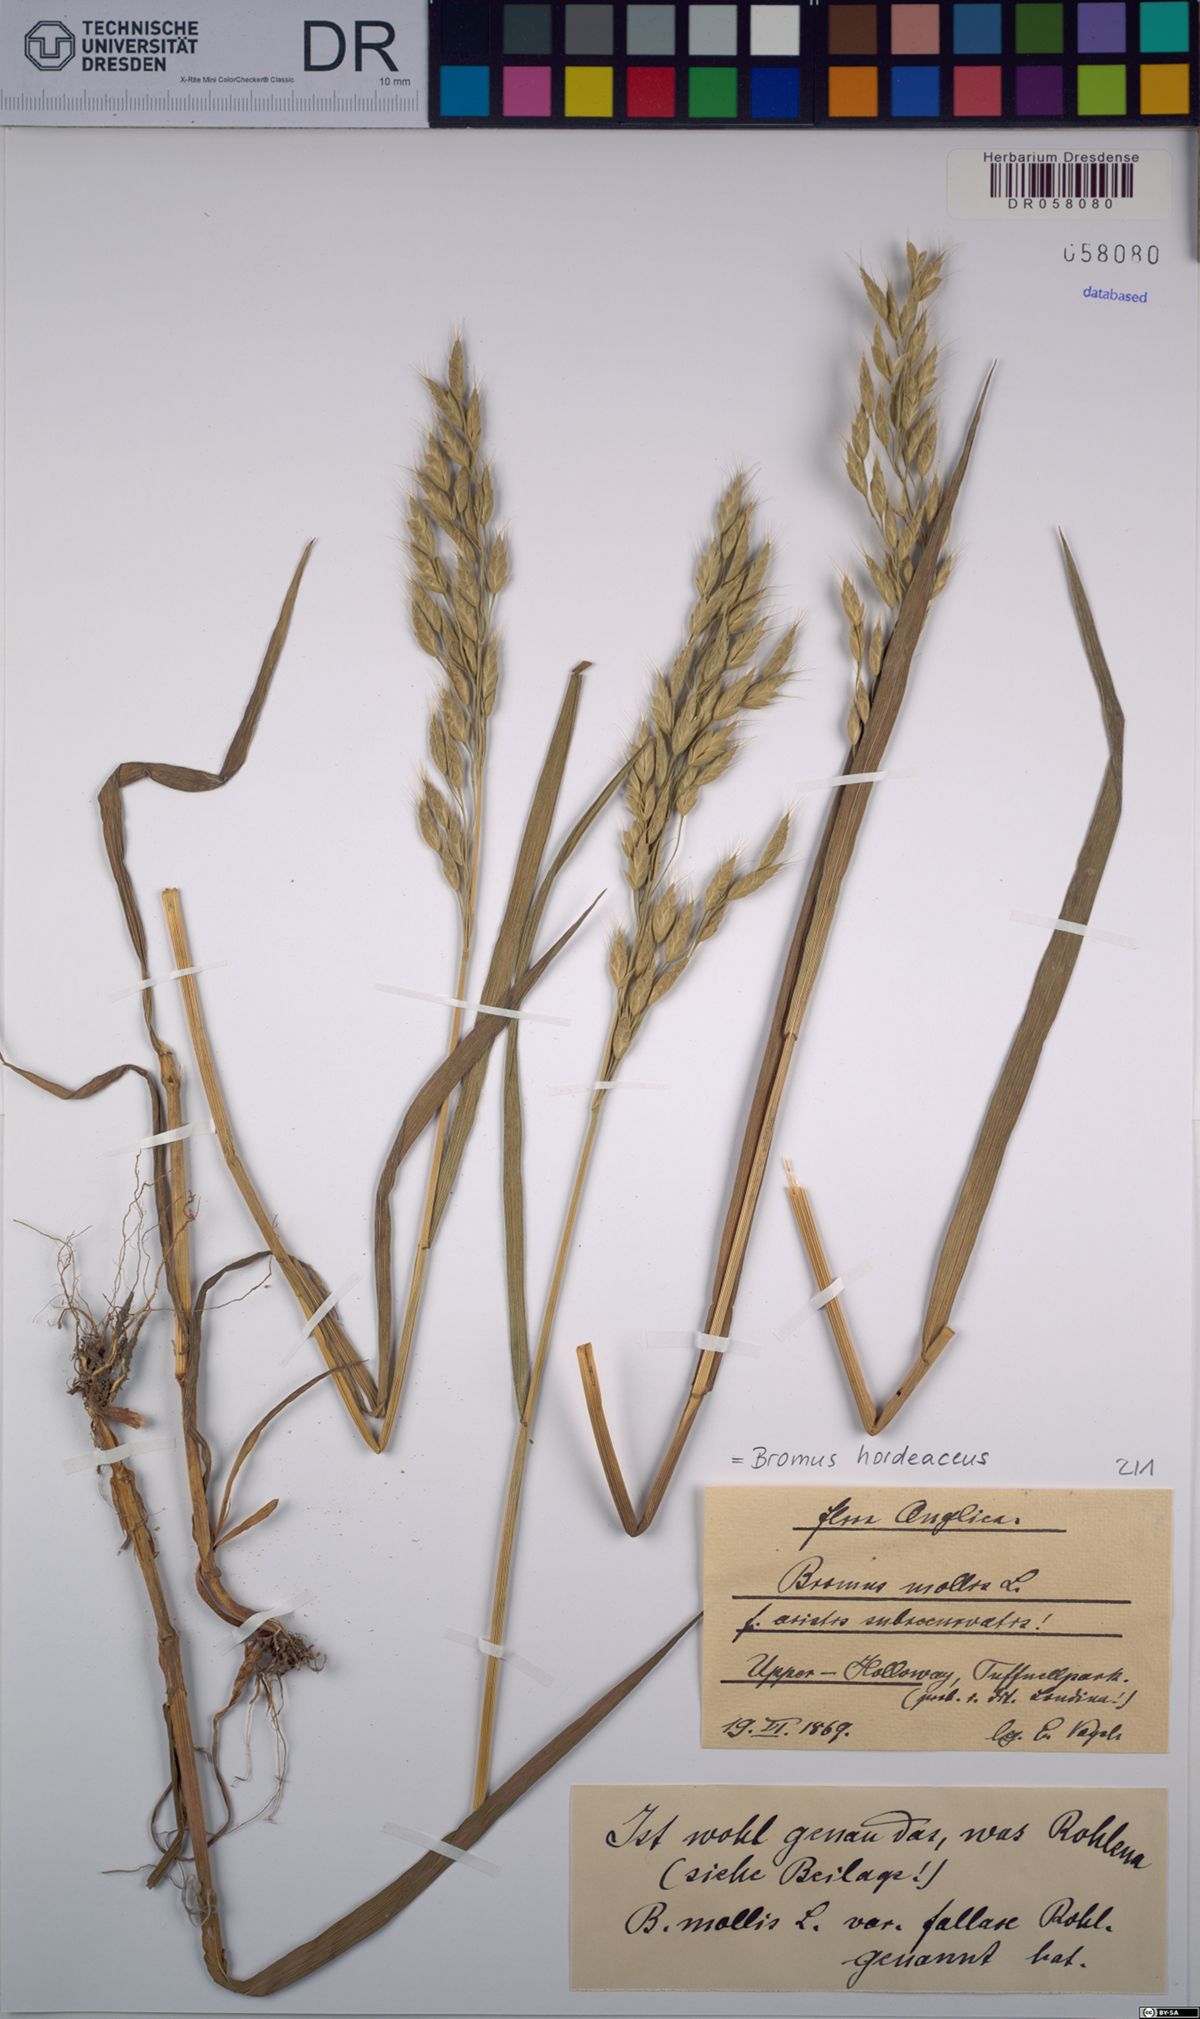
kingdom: Plantae
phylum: Tracheophyta
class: Liliopsida
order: Poales
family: Poaceae
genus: Bromus
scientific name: Bromus hordeaceus
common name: Soft brome
